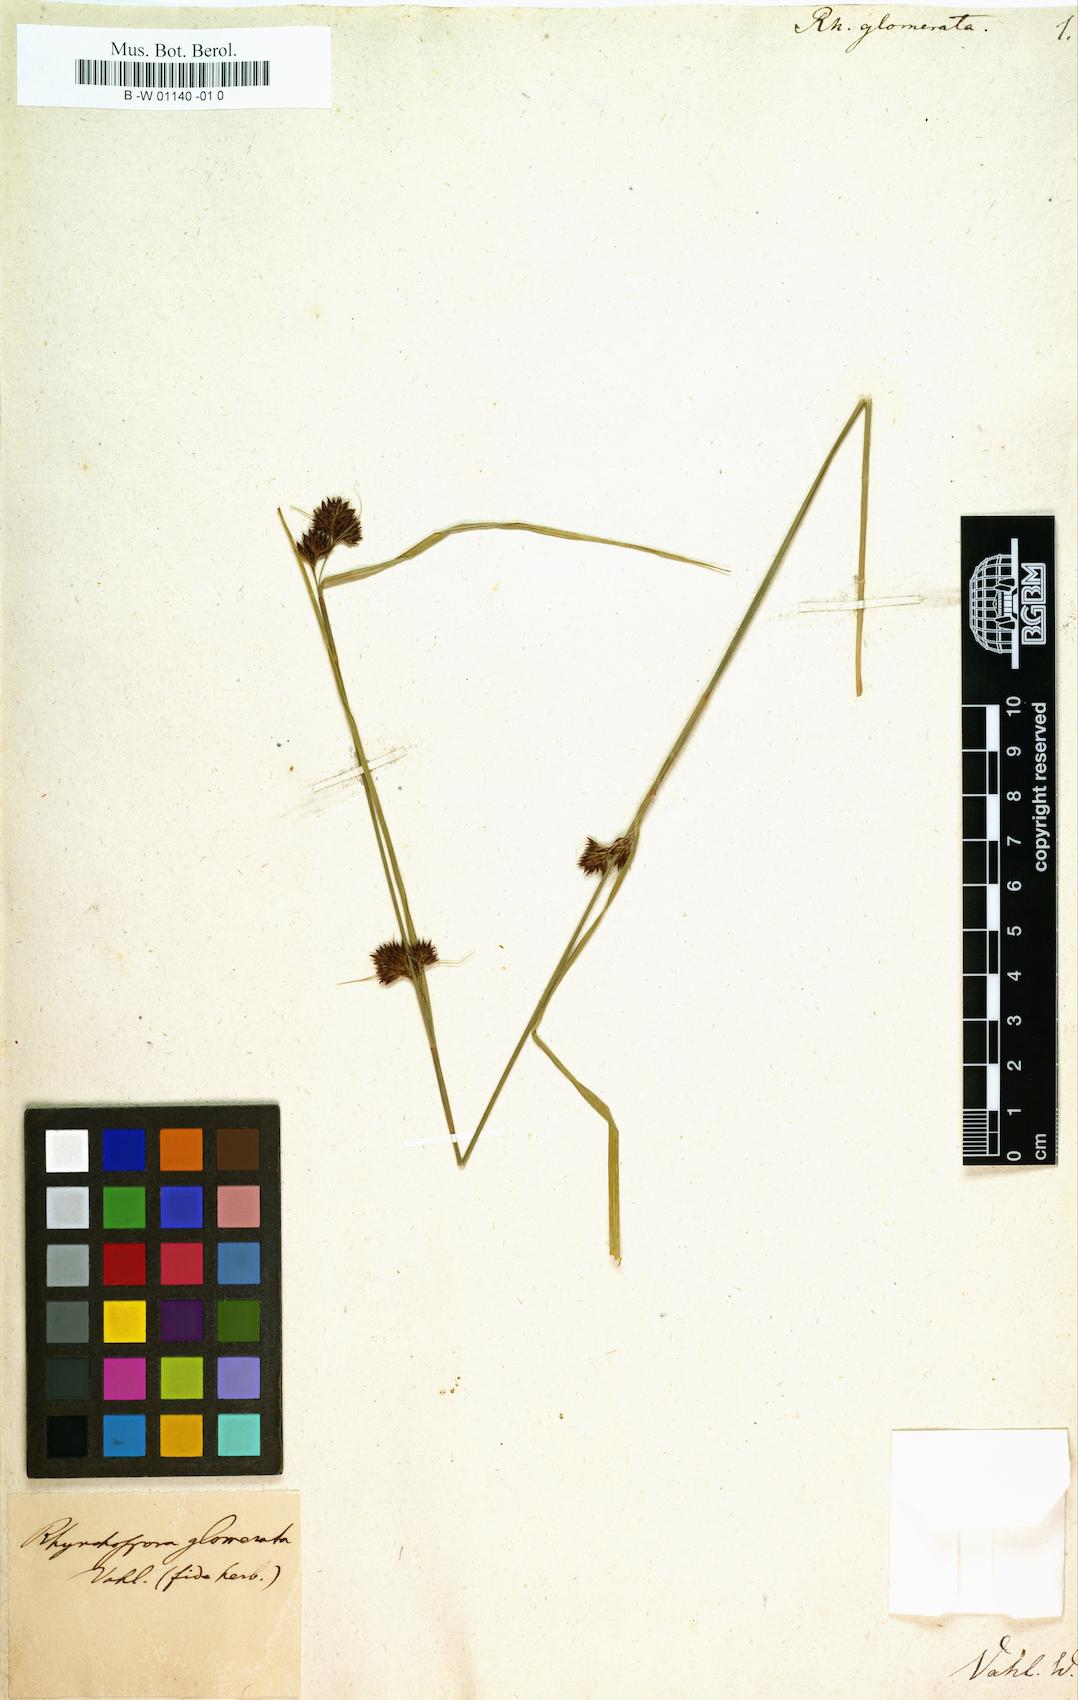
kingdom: Plantae
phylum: Tracheophyta
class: Liliopsida
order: Poales
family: Cyperaceae
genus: Rhynchospora
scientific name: Rhynchospora glomerata
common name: Cluster beak sedge
